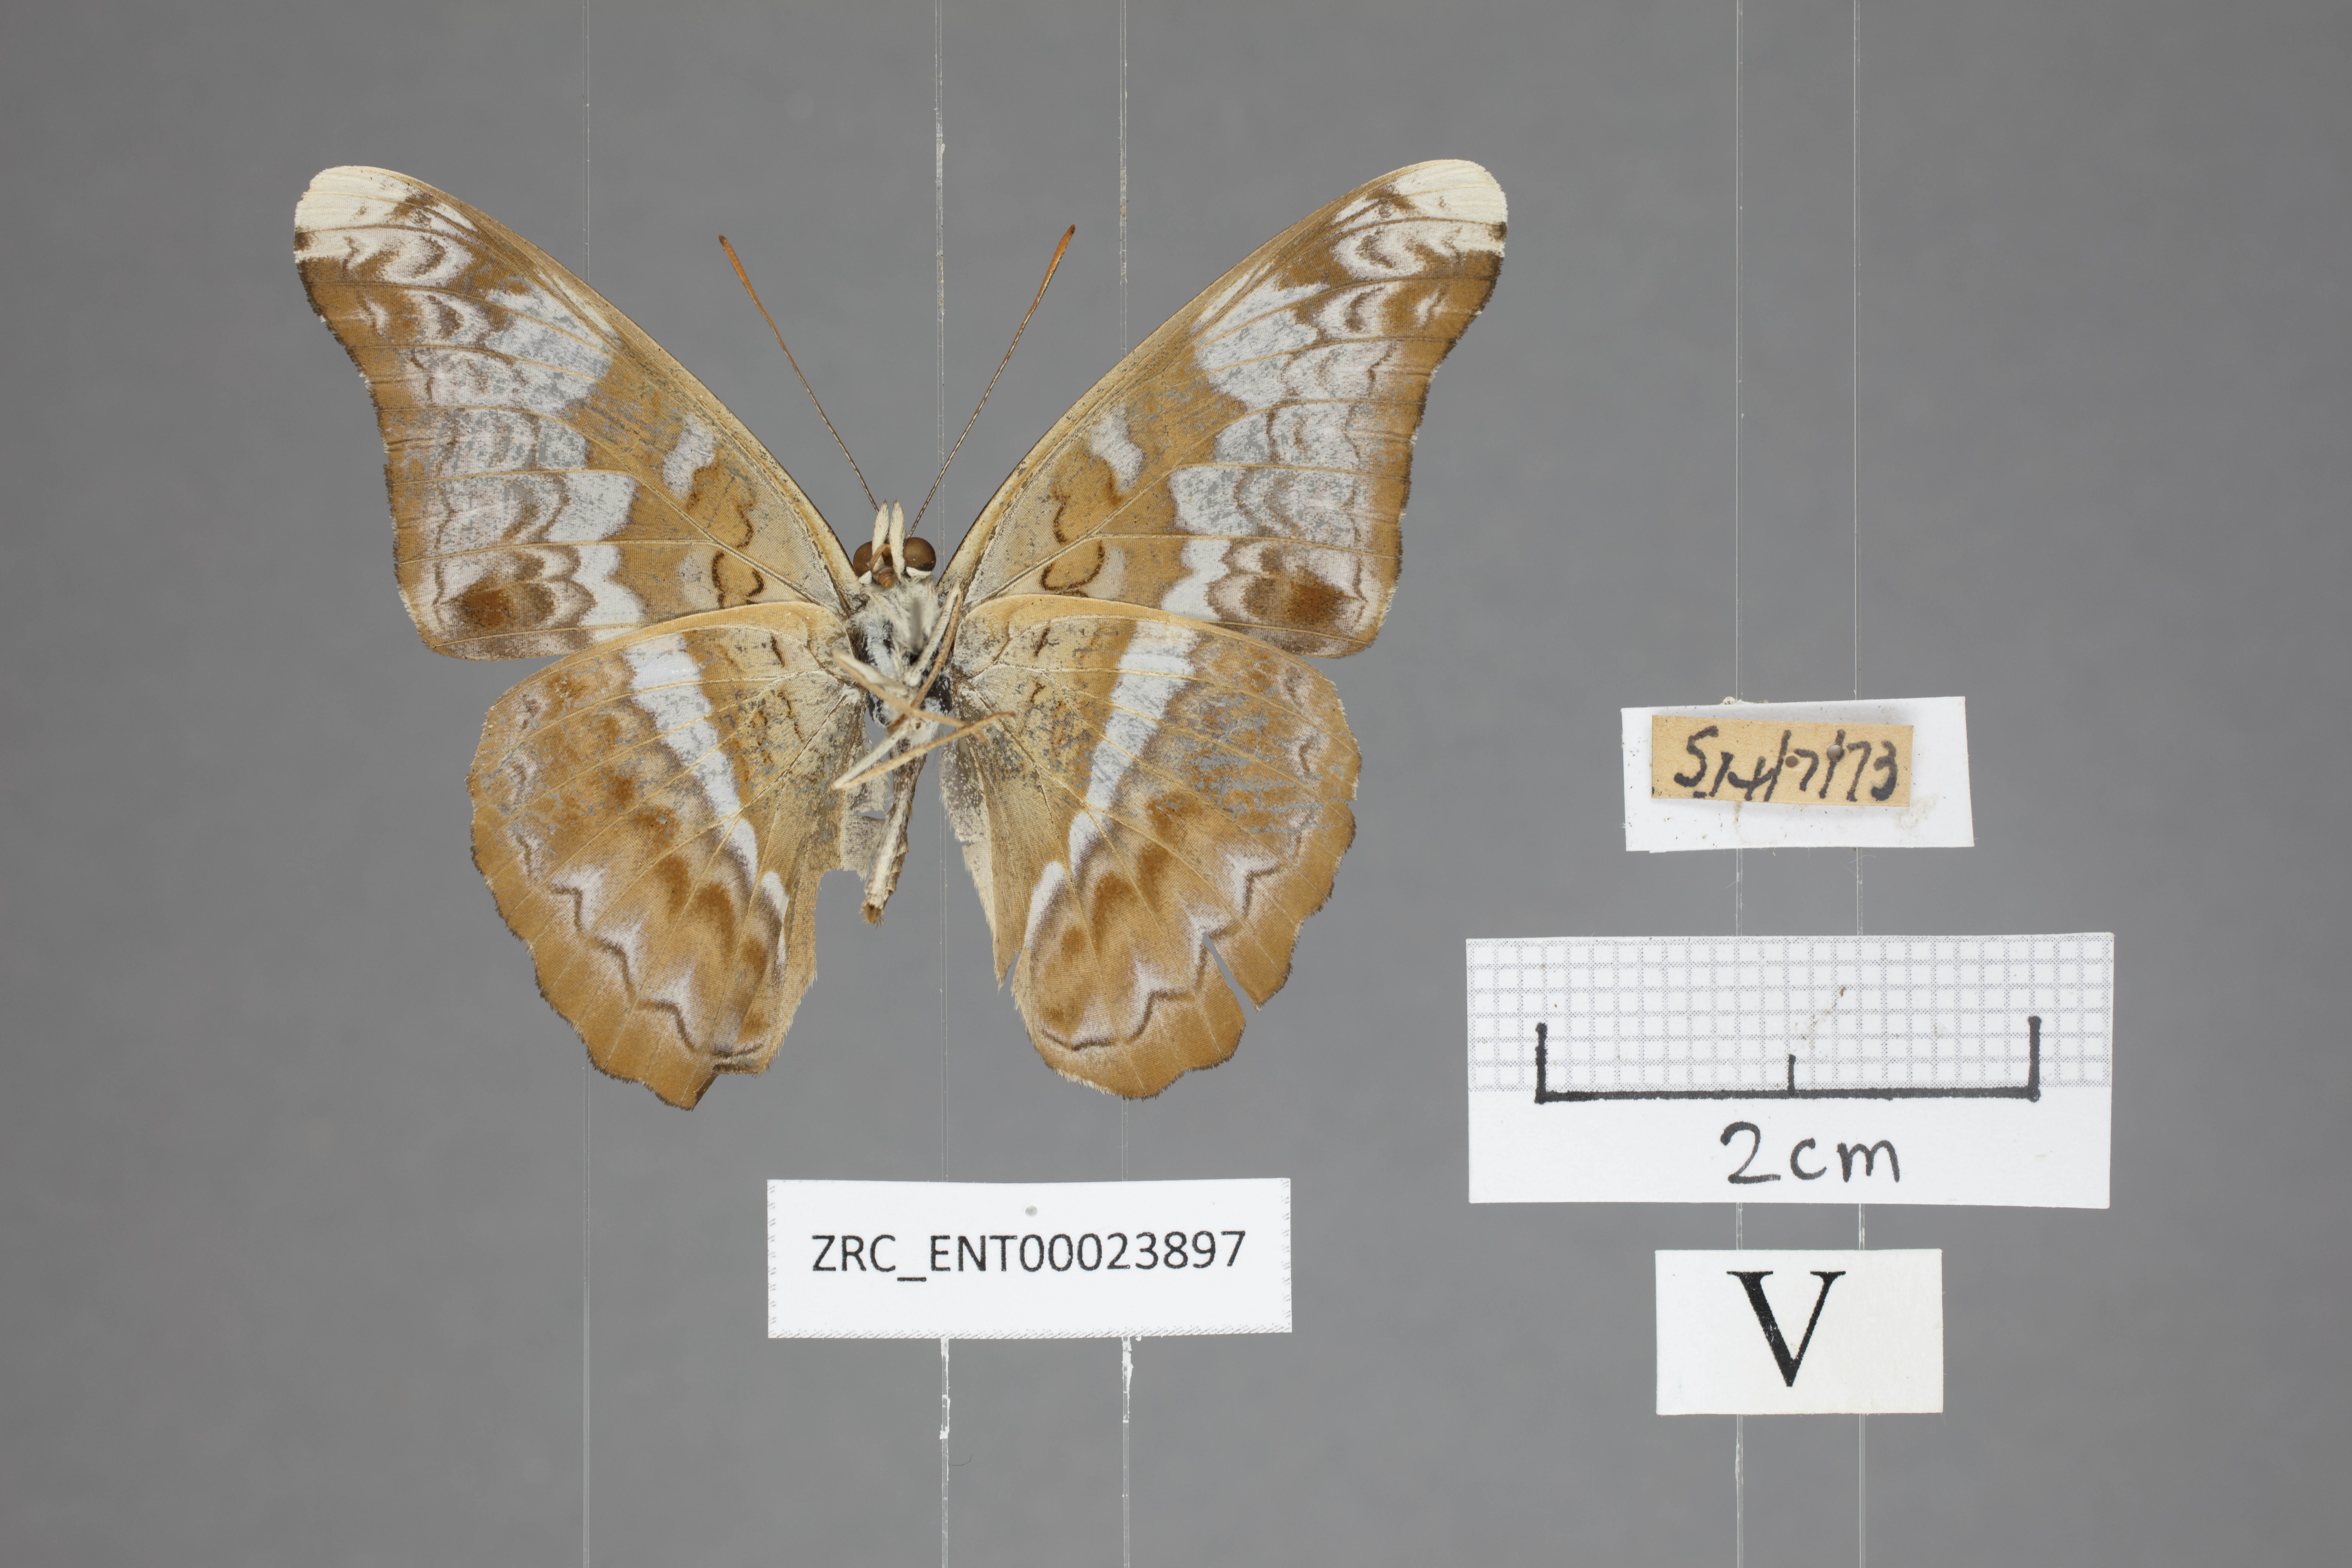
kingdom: Animalia
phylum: Arthropoda
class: Insecta
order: Lepidoptera
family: Nymphalidae
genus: Lebadea
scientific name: Lebadea martha
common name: Knight
